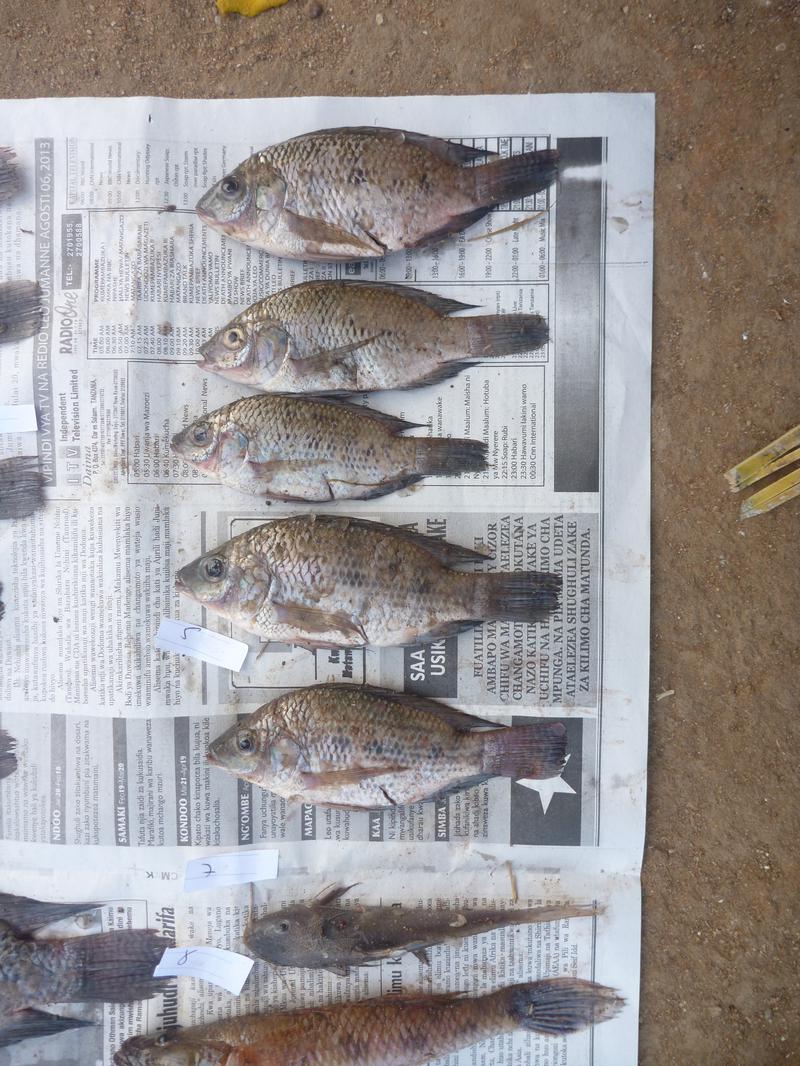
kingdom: Animalia
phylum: Chordata
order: Perciformes
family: Cichlidae
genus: Oreochromis
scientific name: Oreochromis urolepis
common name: Wami tilapia
